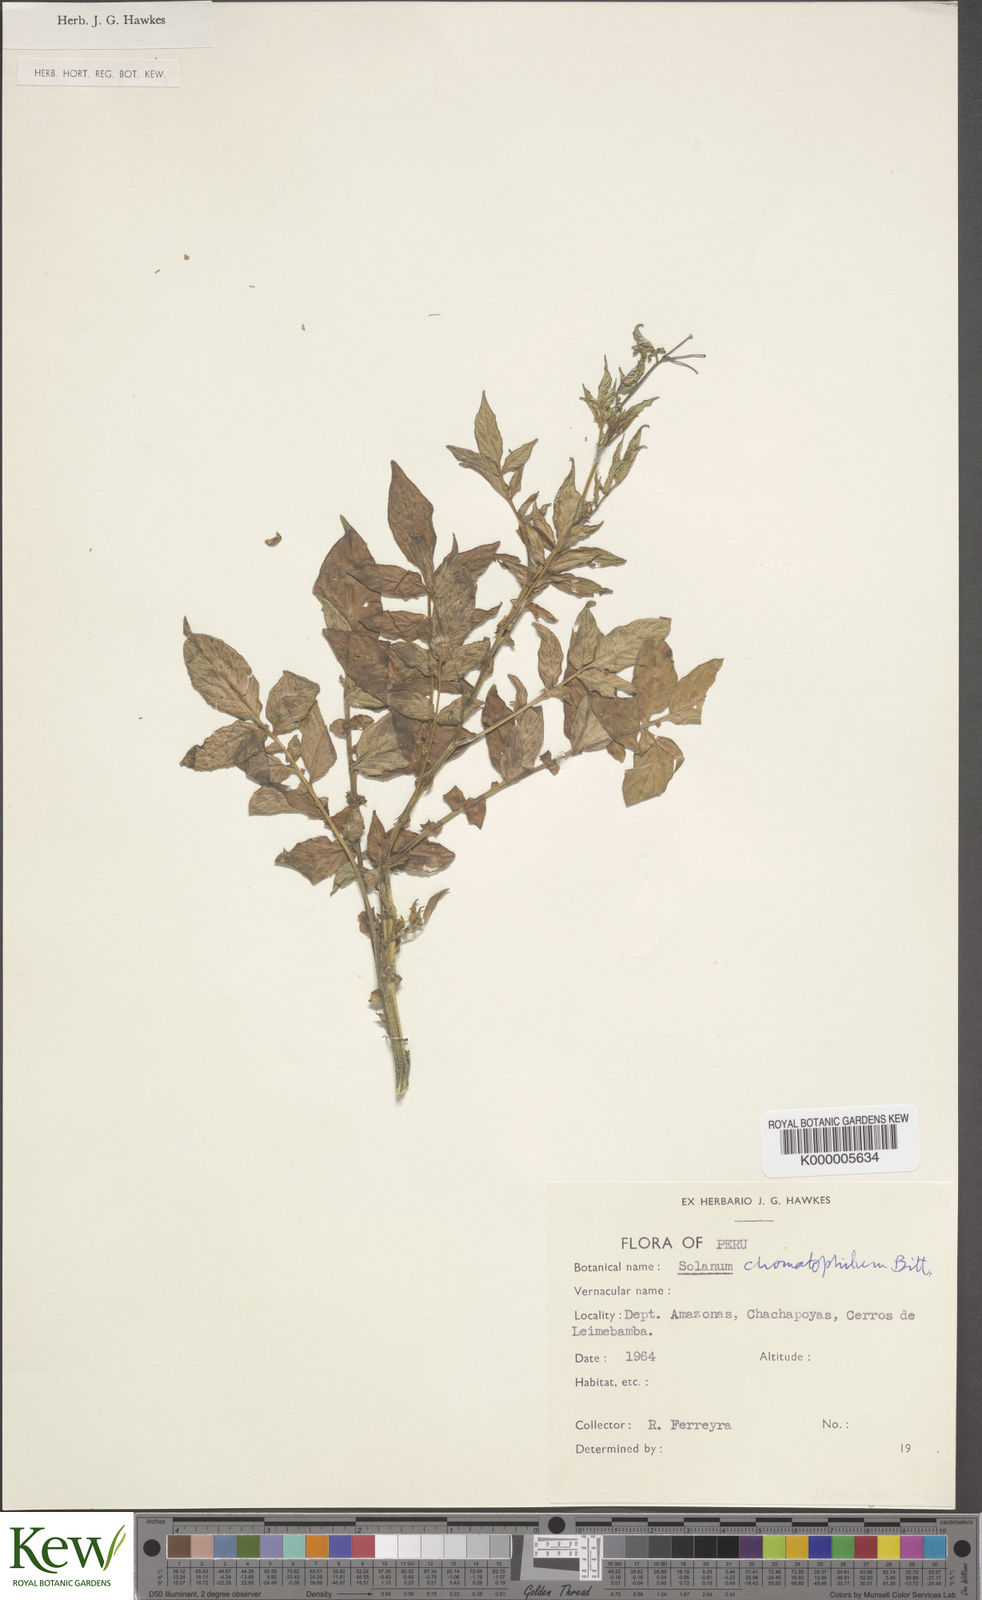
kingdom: Plantae
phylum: Tracheophyta
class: Magnoliopsida
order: Solanales
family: Solanaceae
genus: Solanum
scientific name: Solanum chomatophilum
